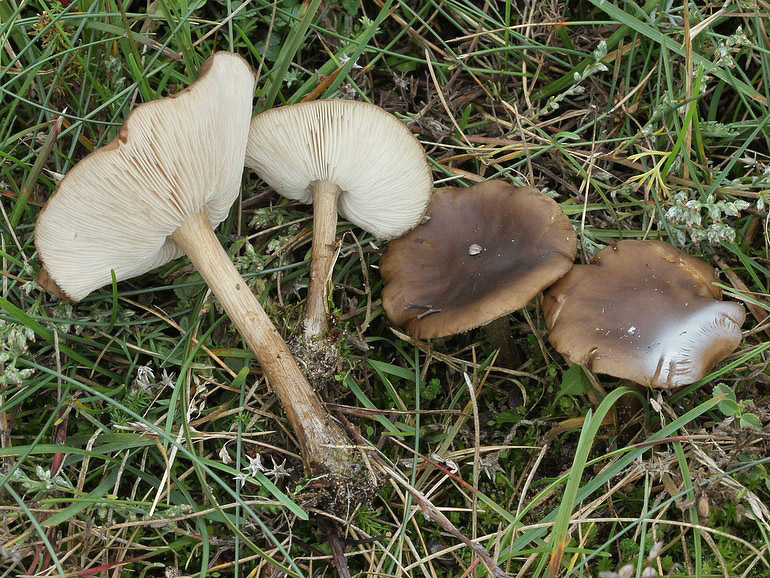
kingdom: Fungi
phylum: Basidiomycota
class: Agaricomycetes
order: Agaricales
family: Tricholomataceae
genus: Melanoleuca
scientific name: Melanoleuca polioleuca
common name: almindelig munkehat
